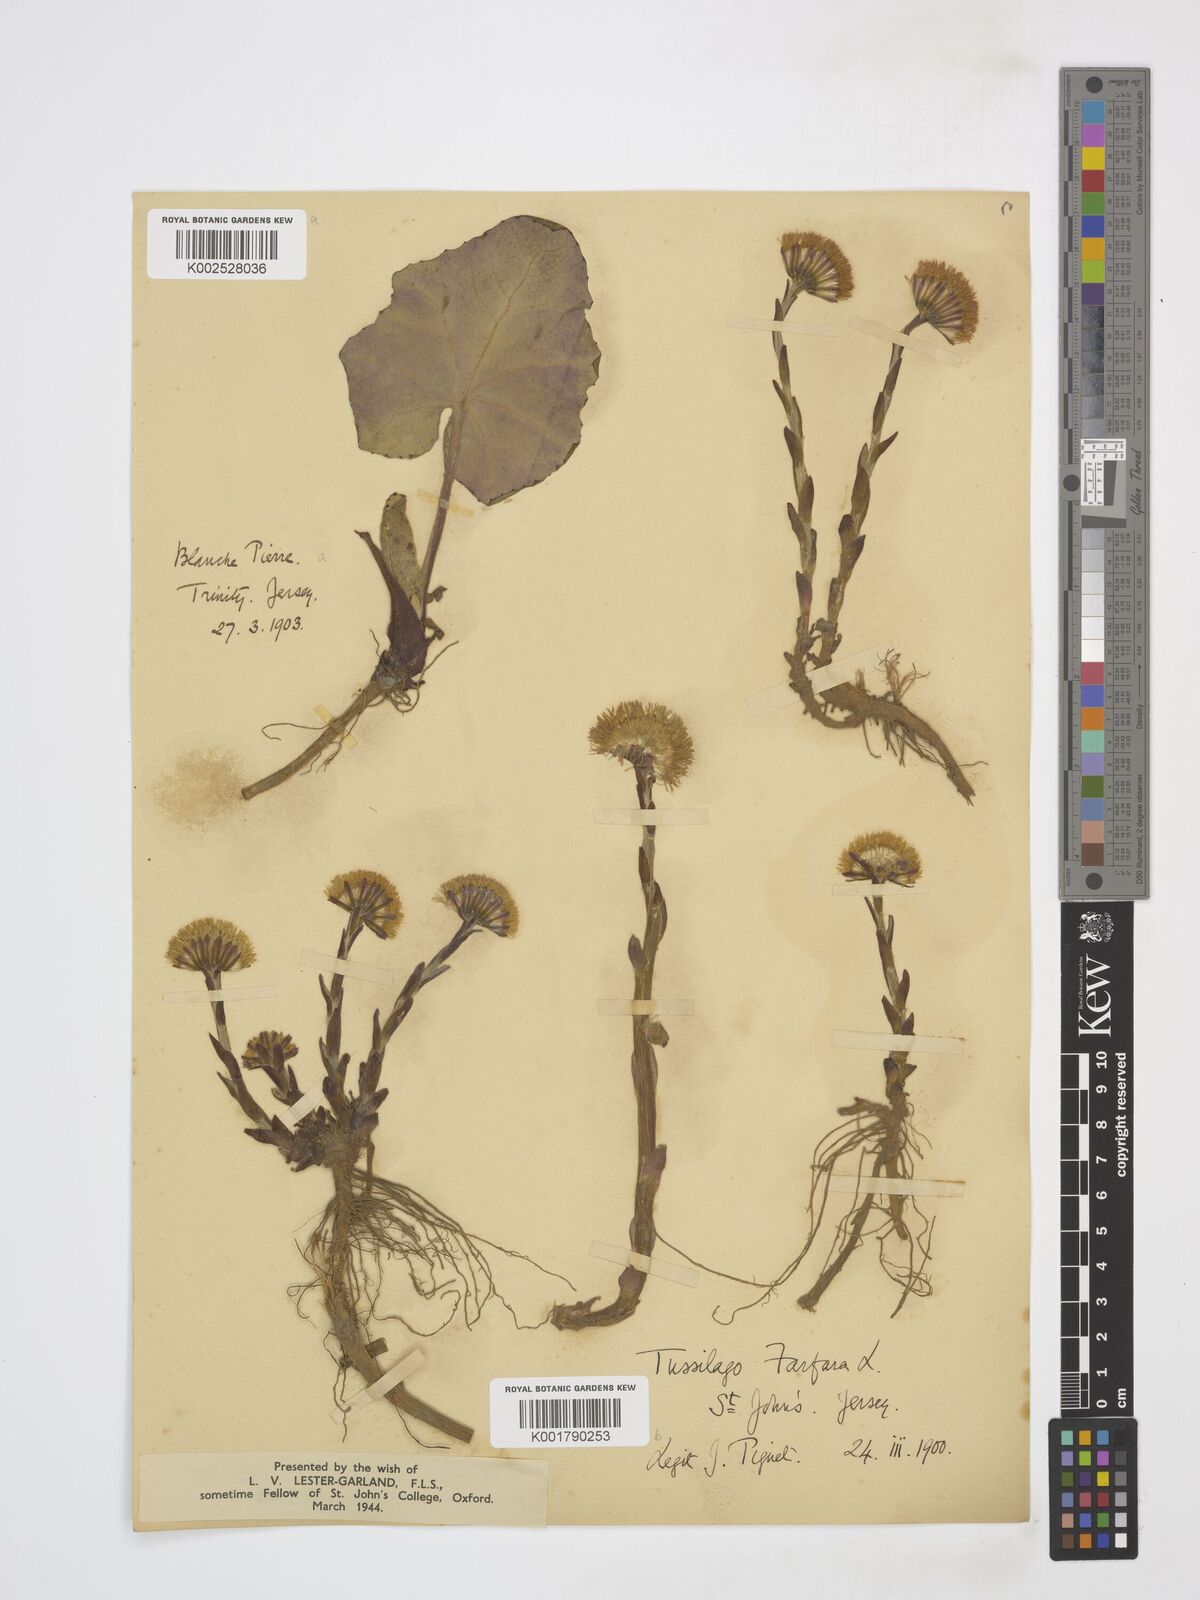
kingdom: Plantae
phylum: Tracheophyta
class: Magnoliopsida
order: Asterales
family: Asteraceae
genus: Tussilago
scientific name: Tussilago farfara
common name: Coltsfoot
